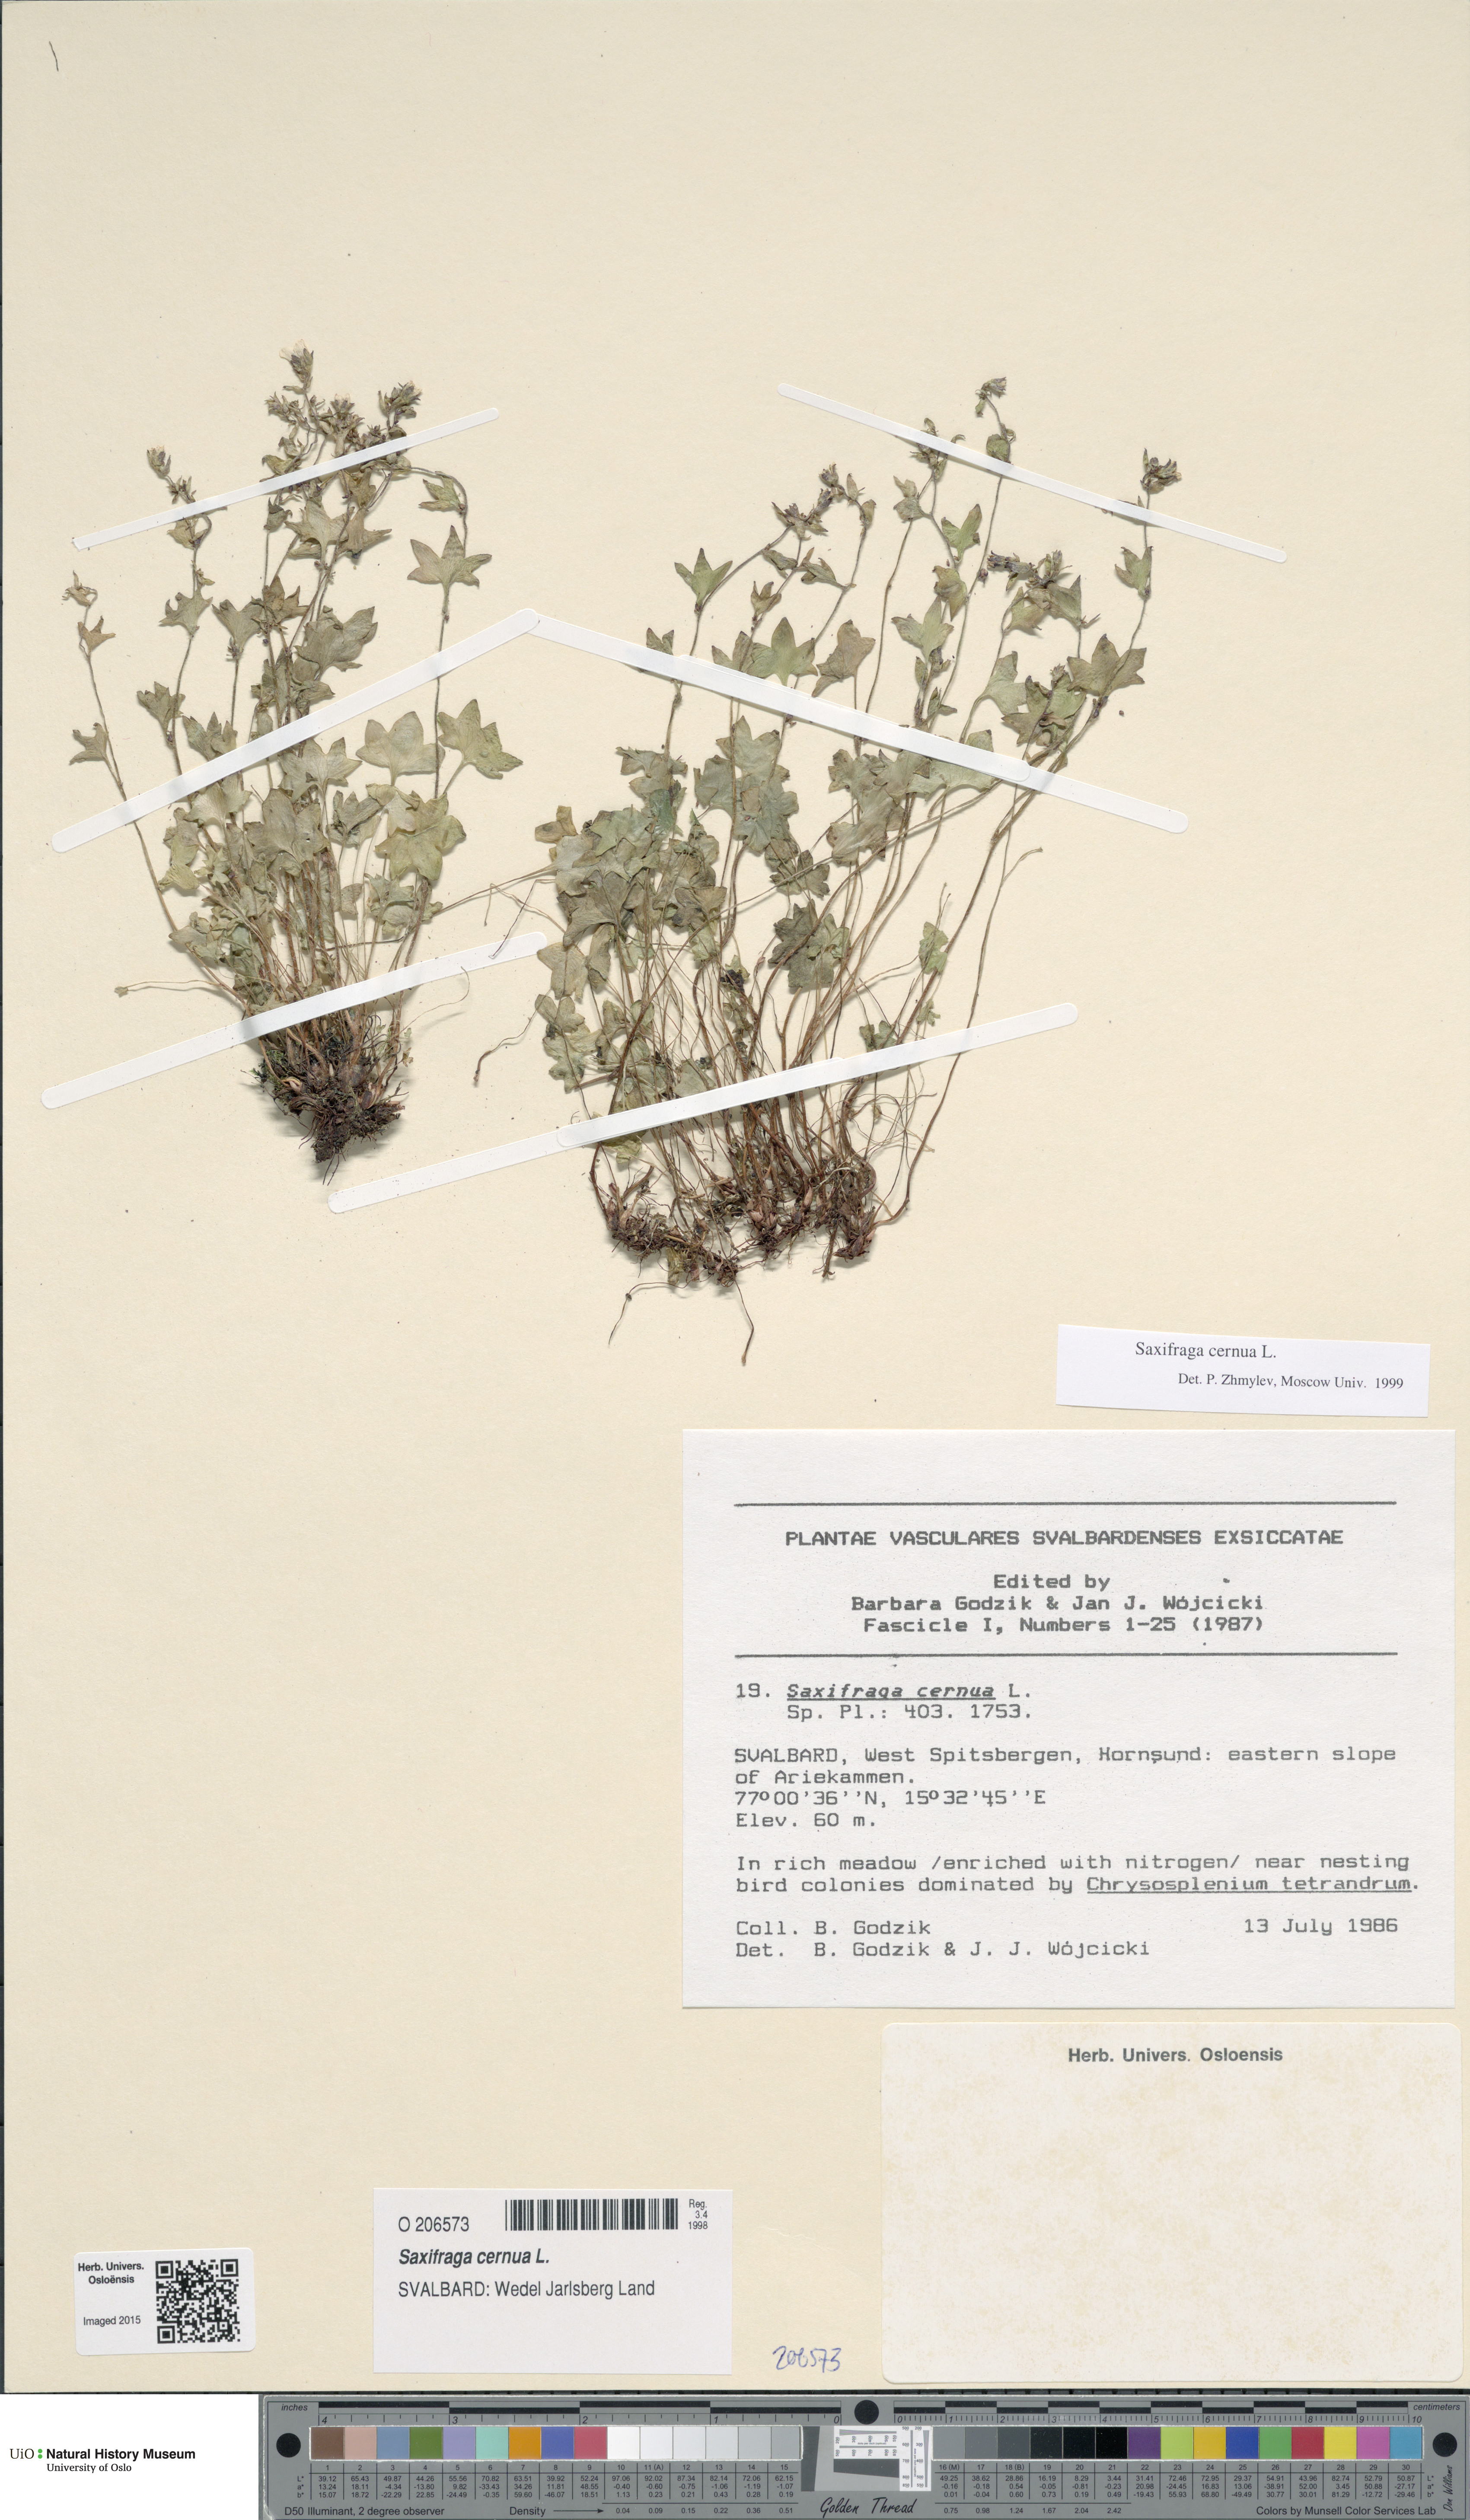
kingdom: Plantae
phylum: Tracheophyta
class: Magnoliopsida
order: Saxifragales
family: Saxifragaceae
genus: Saxifraga
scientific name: Saxifraga cernua
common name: Drooping saxifrage
